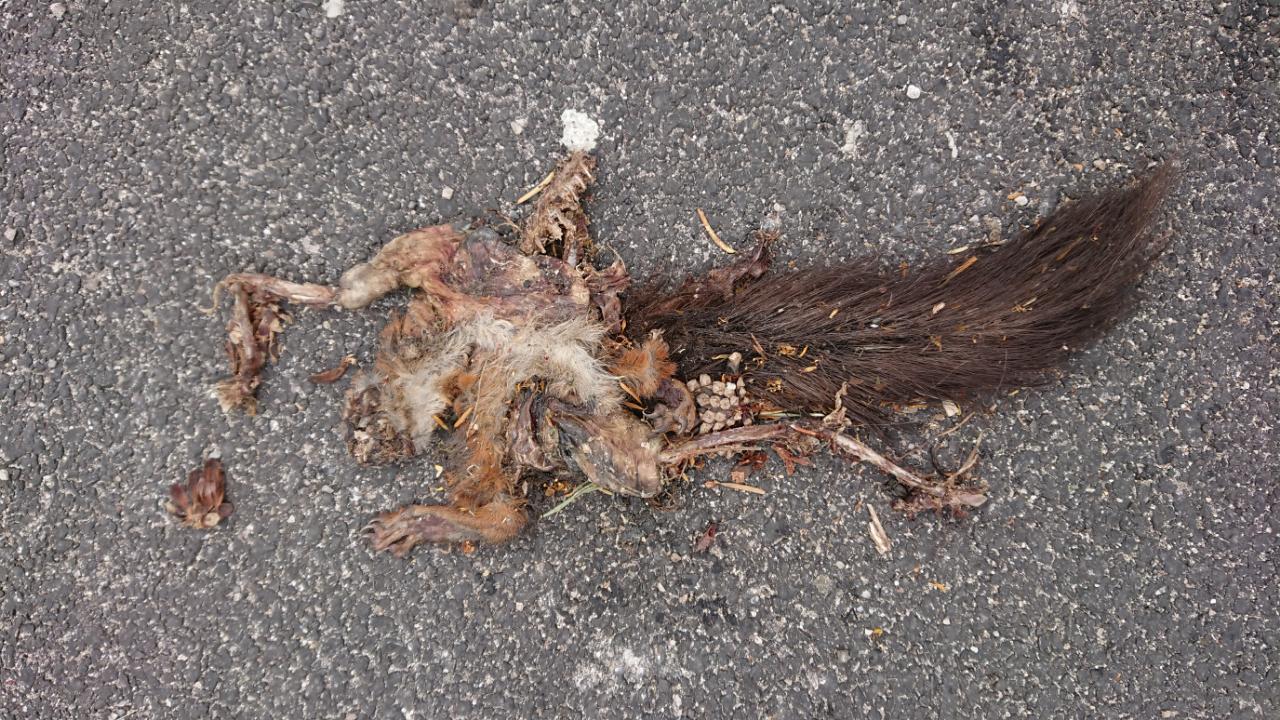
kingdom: Animalia
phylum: Chordata
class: Mammalia
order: Rodentia
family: Sciuridae
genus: Sciurus
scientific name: Sciurus vulgaris
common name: Eurasian red squirrel
